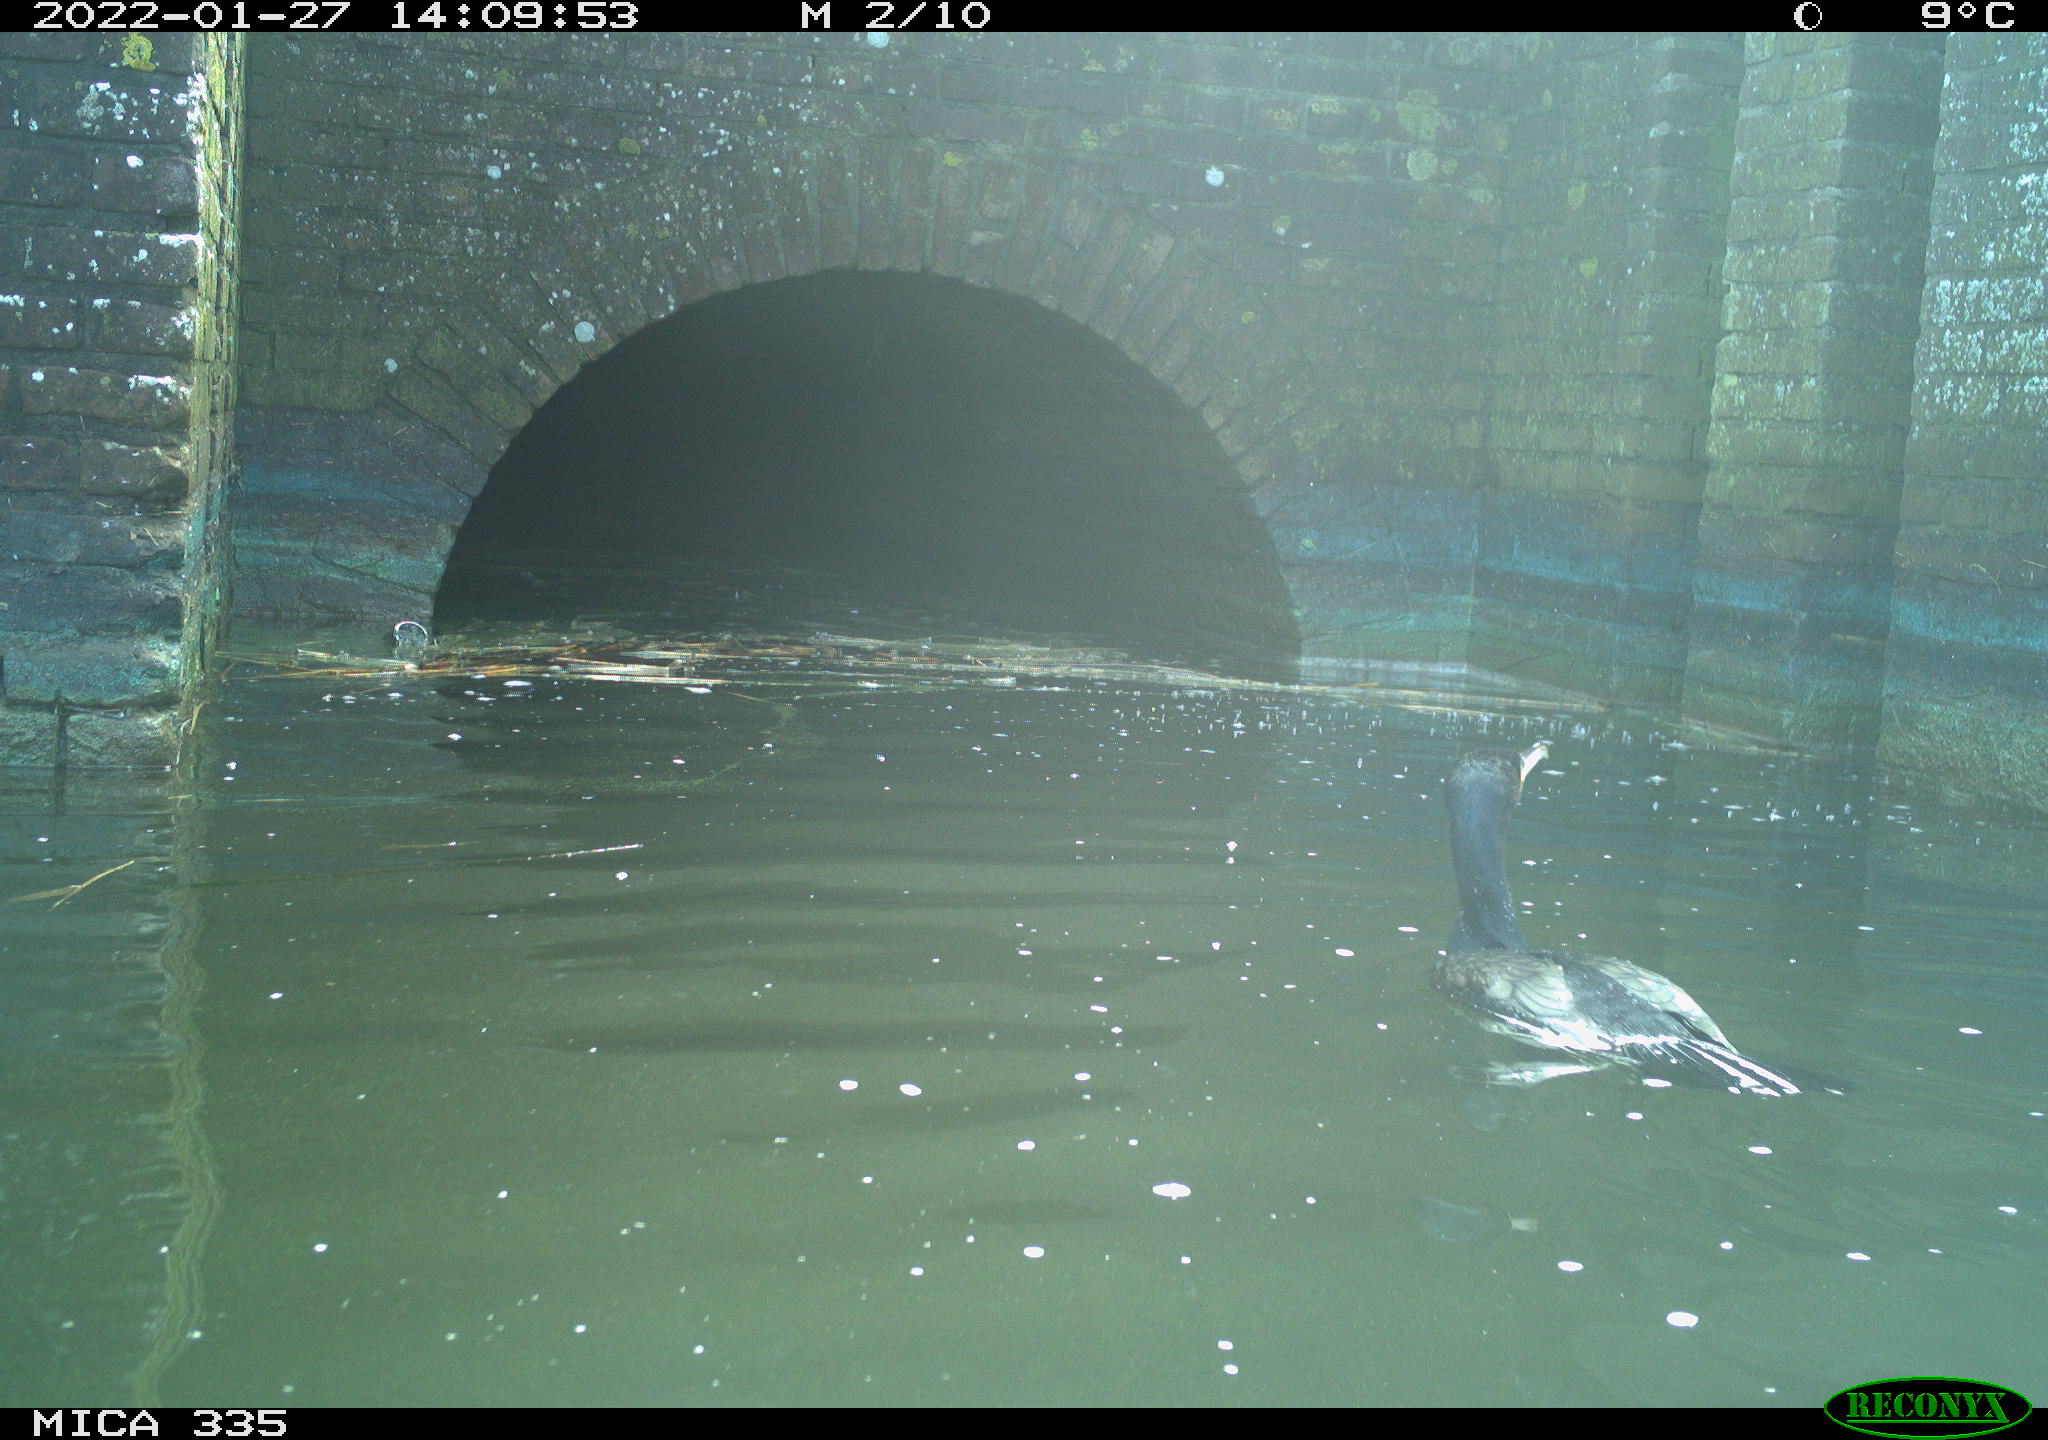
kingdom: Animalia
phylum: Chordata
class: Aves
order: Suliformes
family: Phalacrocoracidae
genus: Phalacrocorax
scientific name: Phalacrocorax carbo
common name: Great cormorant
